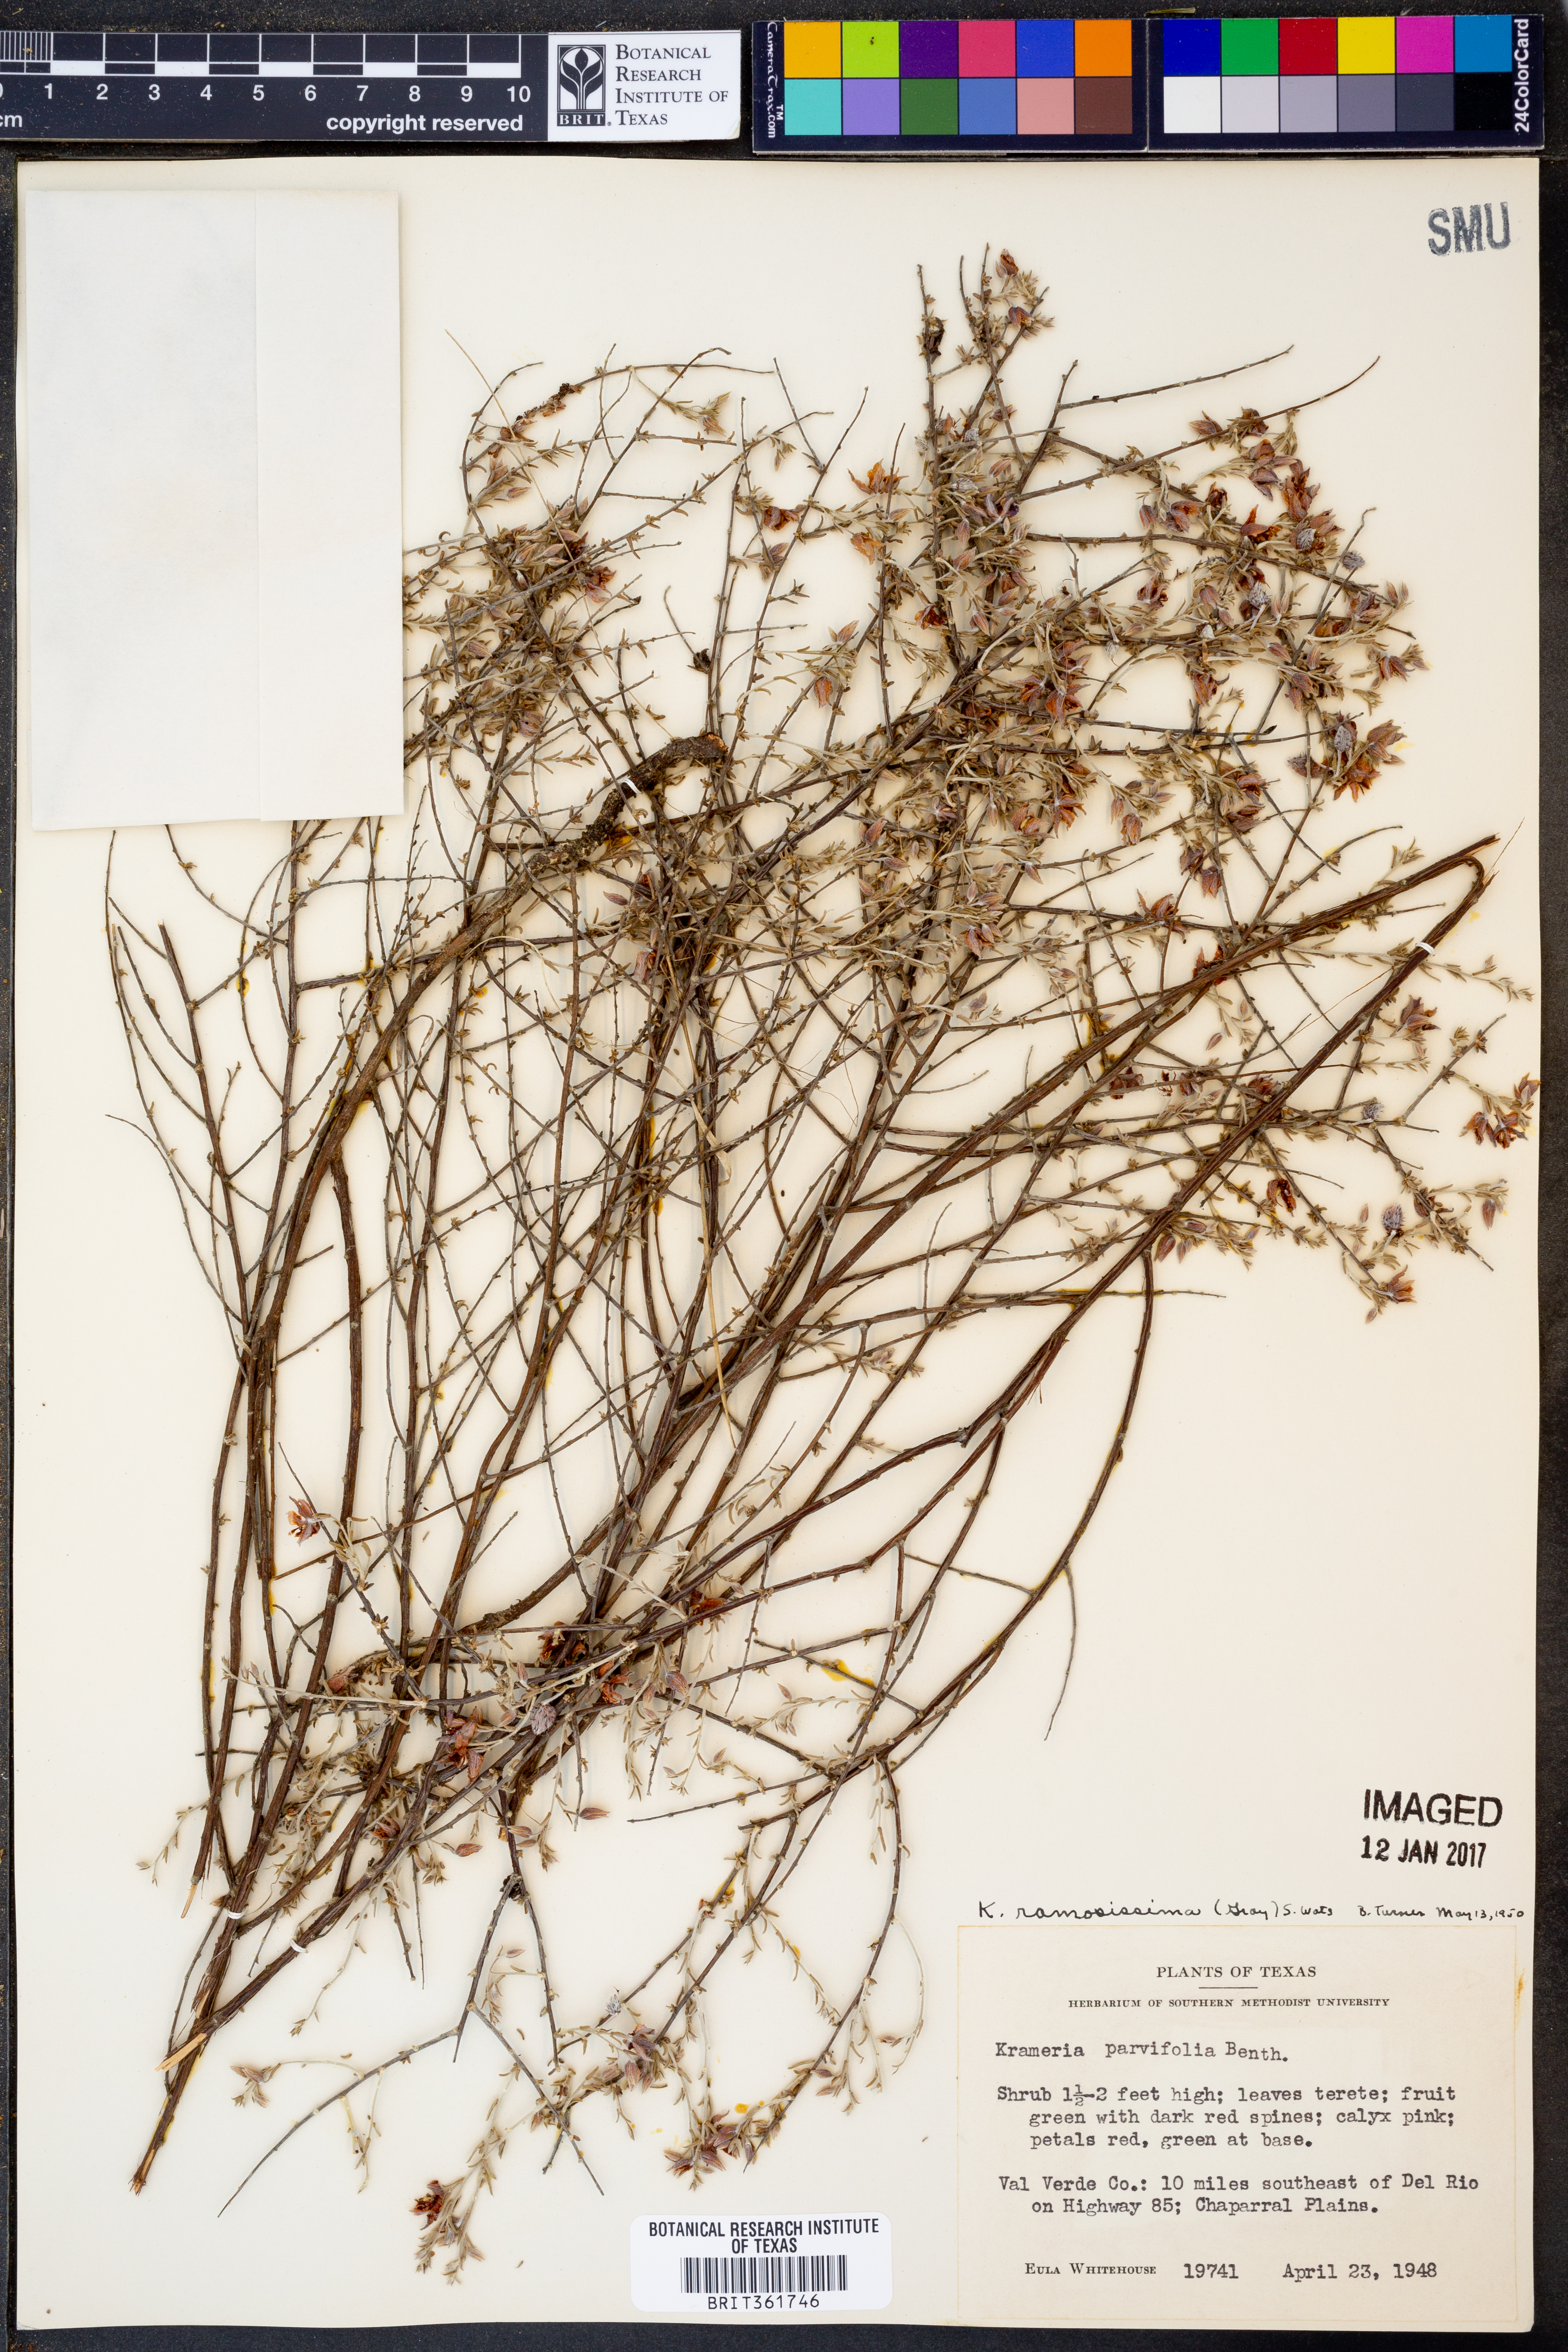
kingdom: Plantae
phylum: Tracheophyta
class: Magnoliopsida
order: Zygophyllales
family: Krameriaceae
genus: Krameria
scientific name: Krameria ramosissima
